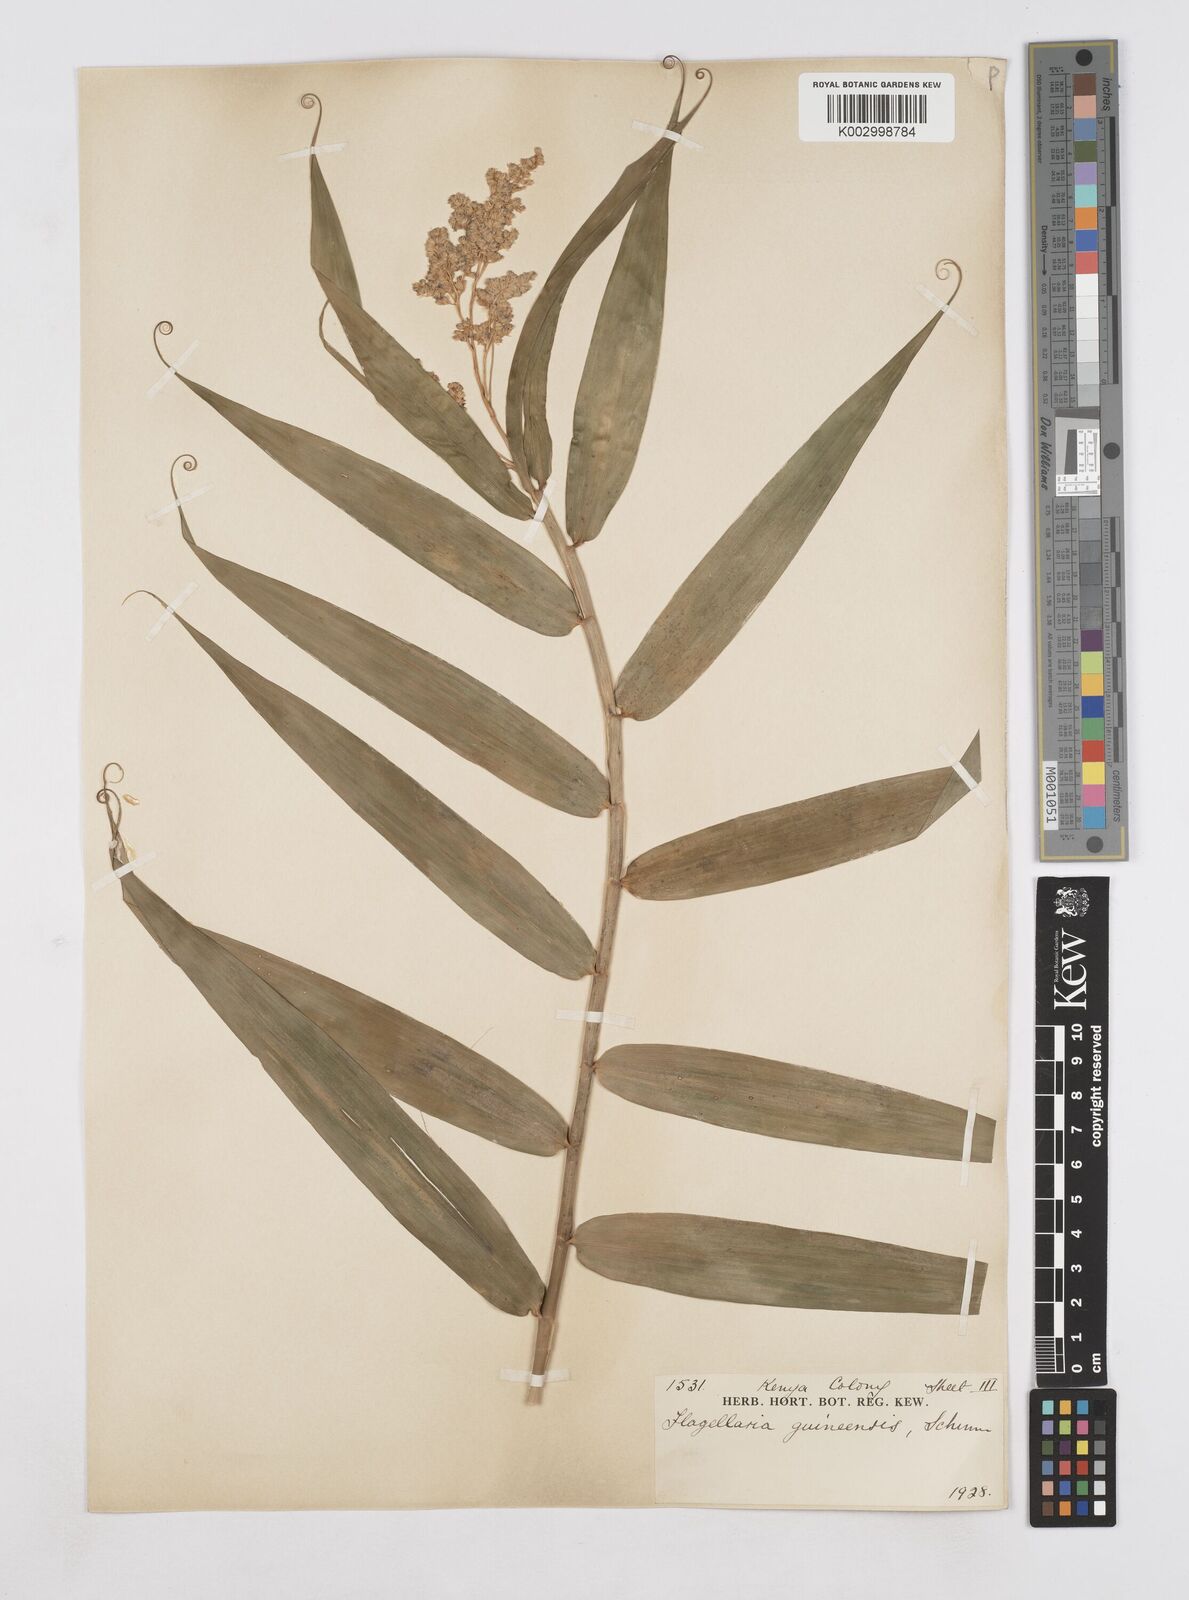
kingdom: Plantae
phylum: Tracheophyta
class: Liliopsida
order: Poales
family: Flagellariaceae
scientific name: Flagellariaceae
